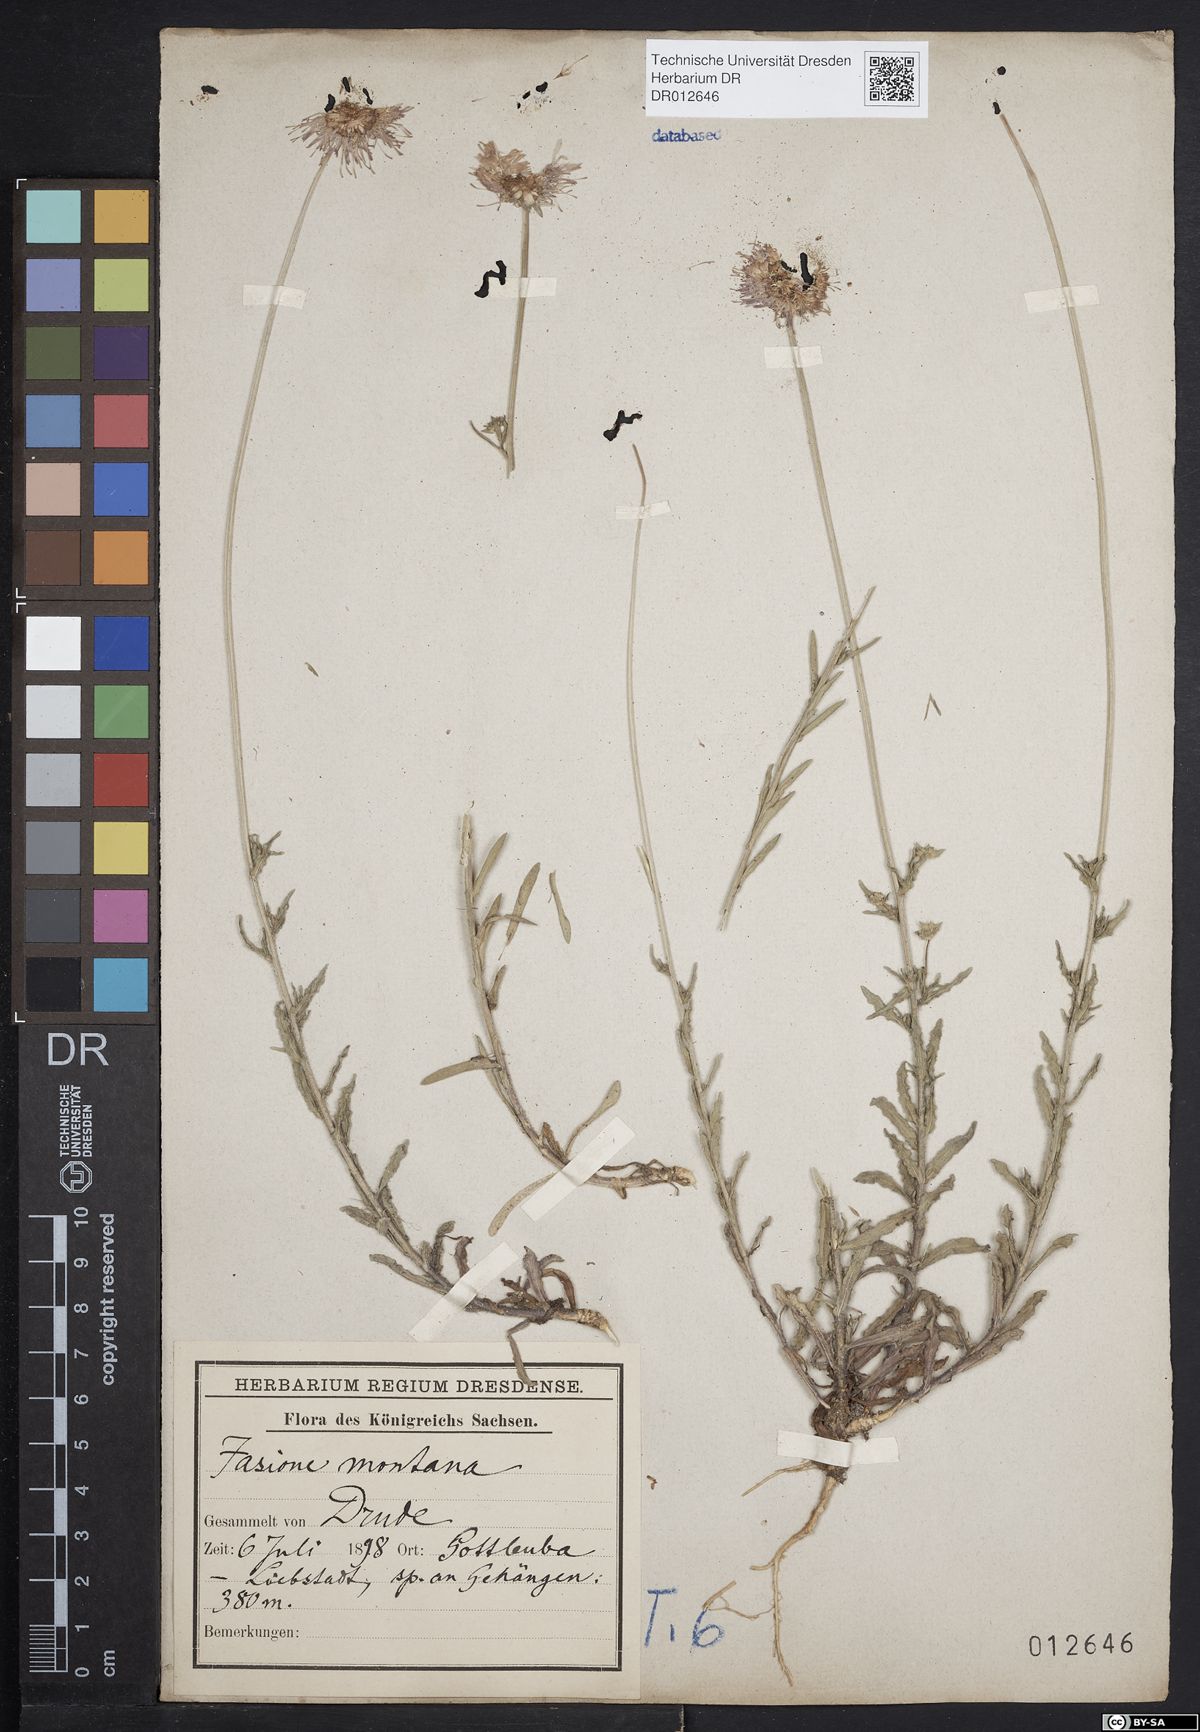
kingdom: Plantae
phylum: Tracheophyta
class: Magnoliopsida
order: Asterales
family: Campanulaceae
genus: Jasione
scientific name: Jasione montana
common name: Sheep's-bit
